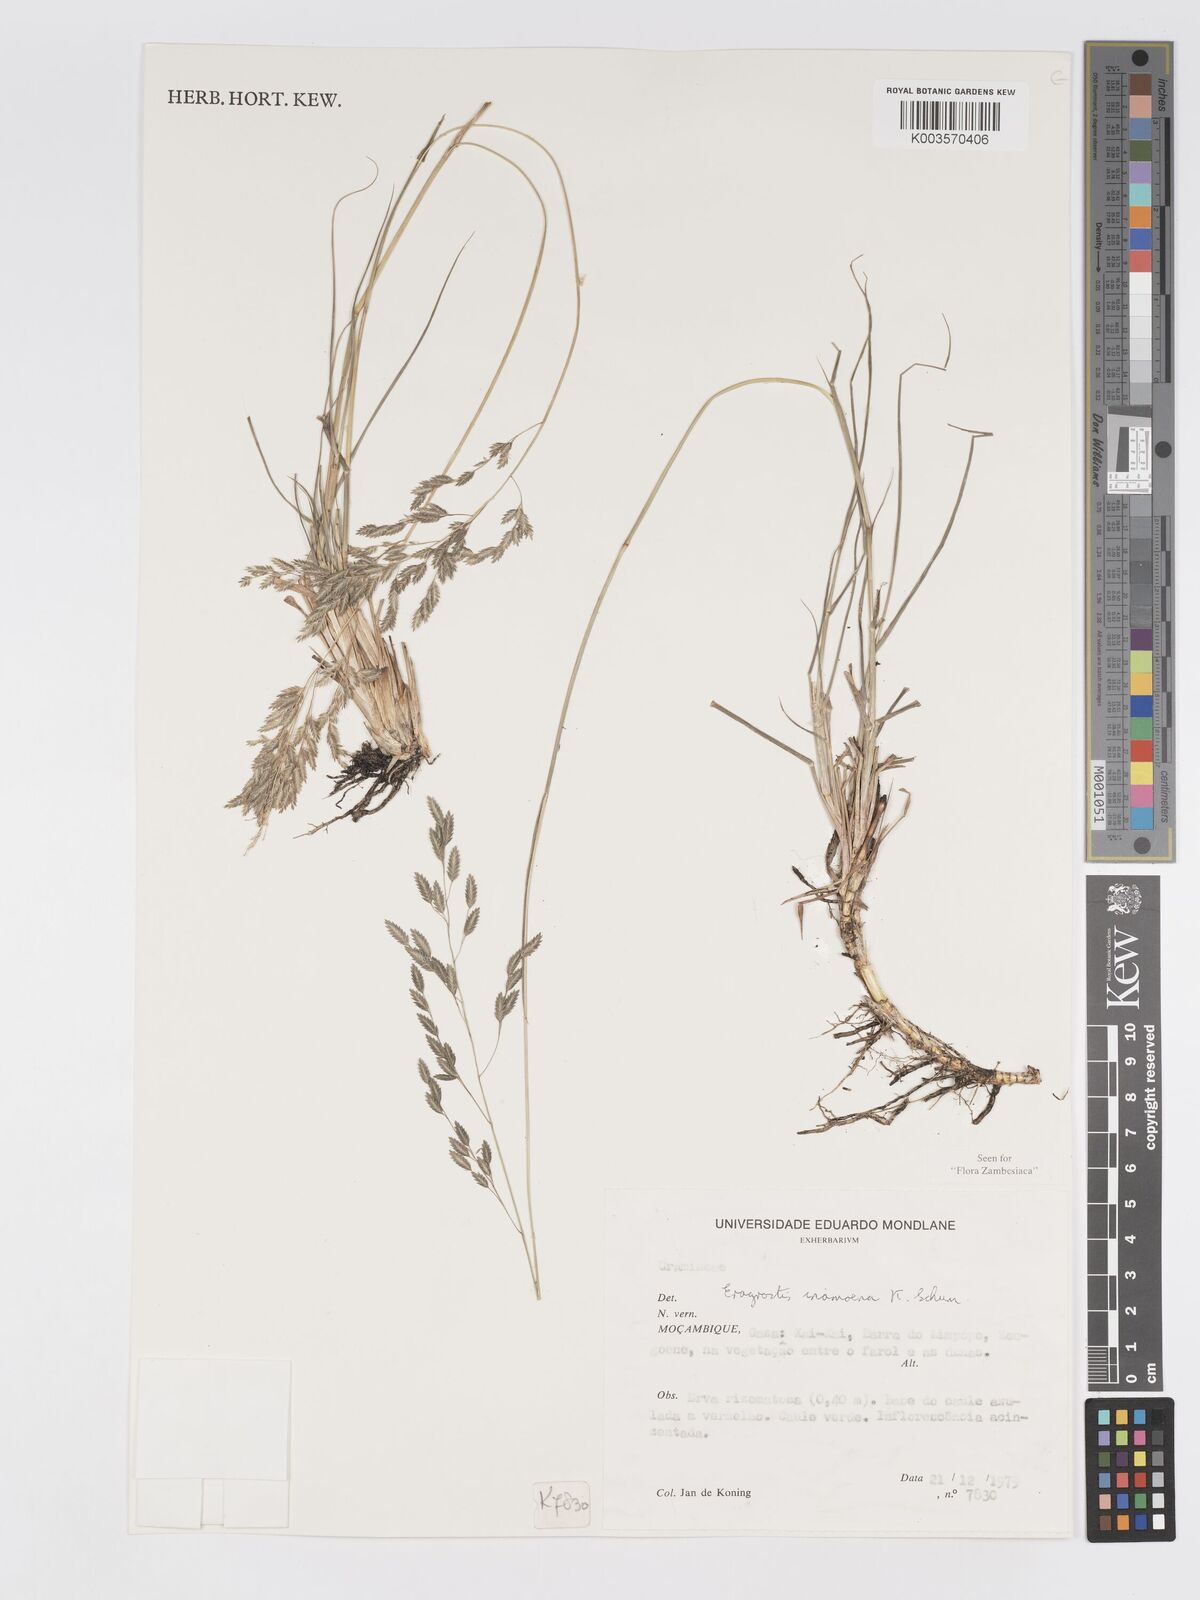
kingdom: Plantae
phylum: Tracheophyta
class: Liliopsida
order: Poales
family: Poaceae
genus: Eragrostis
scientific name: Eragrostis inamoena
